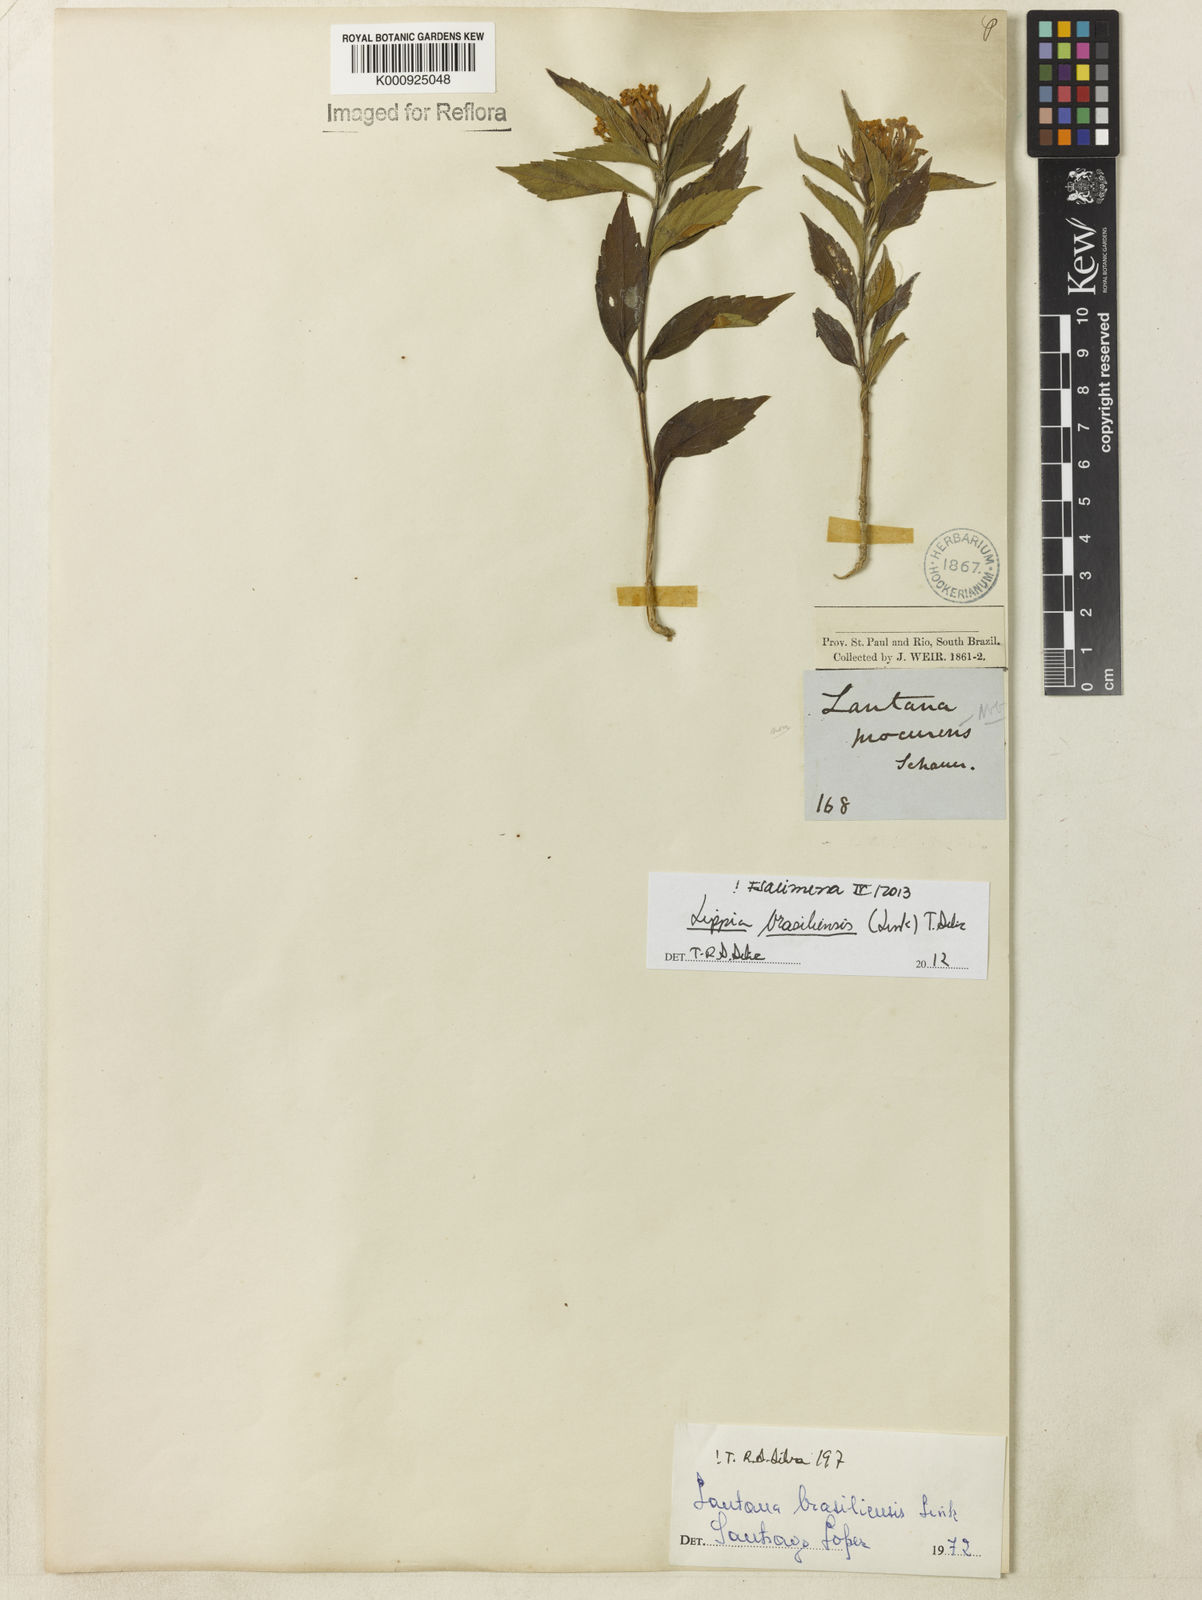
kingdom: Plantae
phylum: Tracheophyta
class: Magnoliopsida
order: Lamiales
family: Verbenaceae
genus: Lippia
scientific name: Lippia brasiliensis
